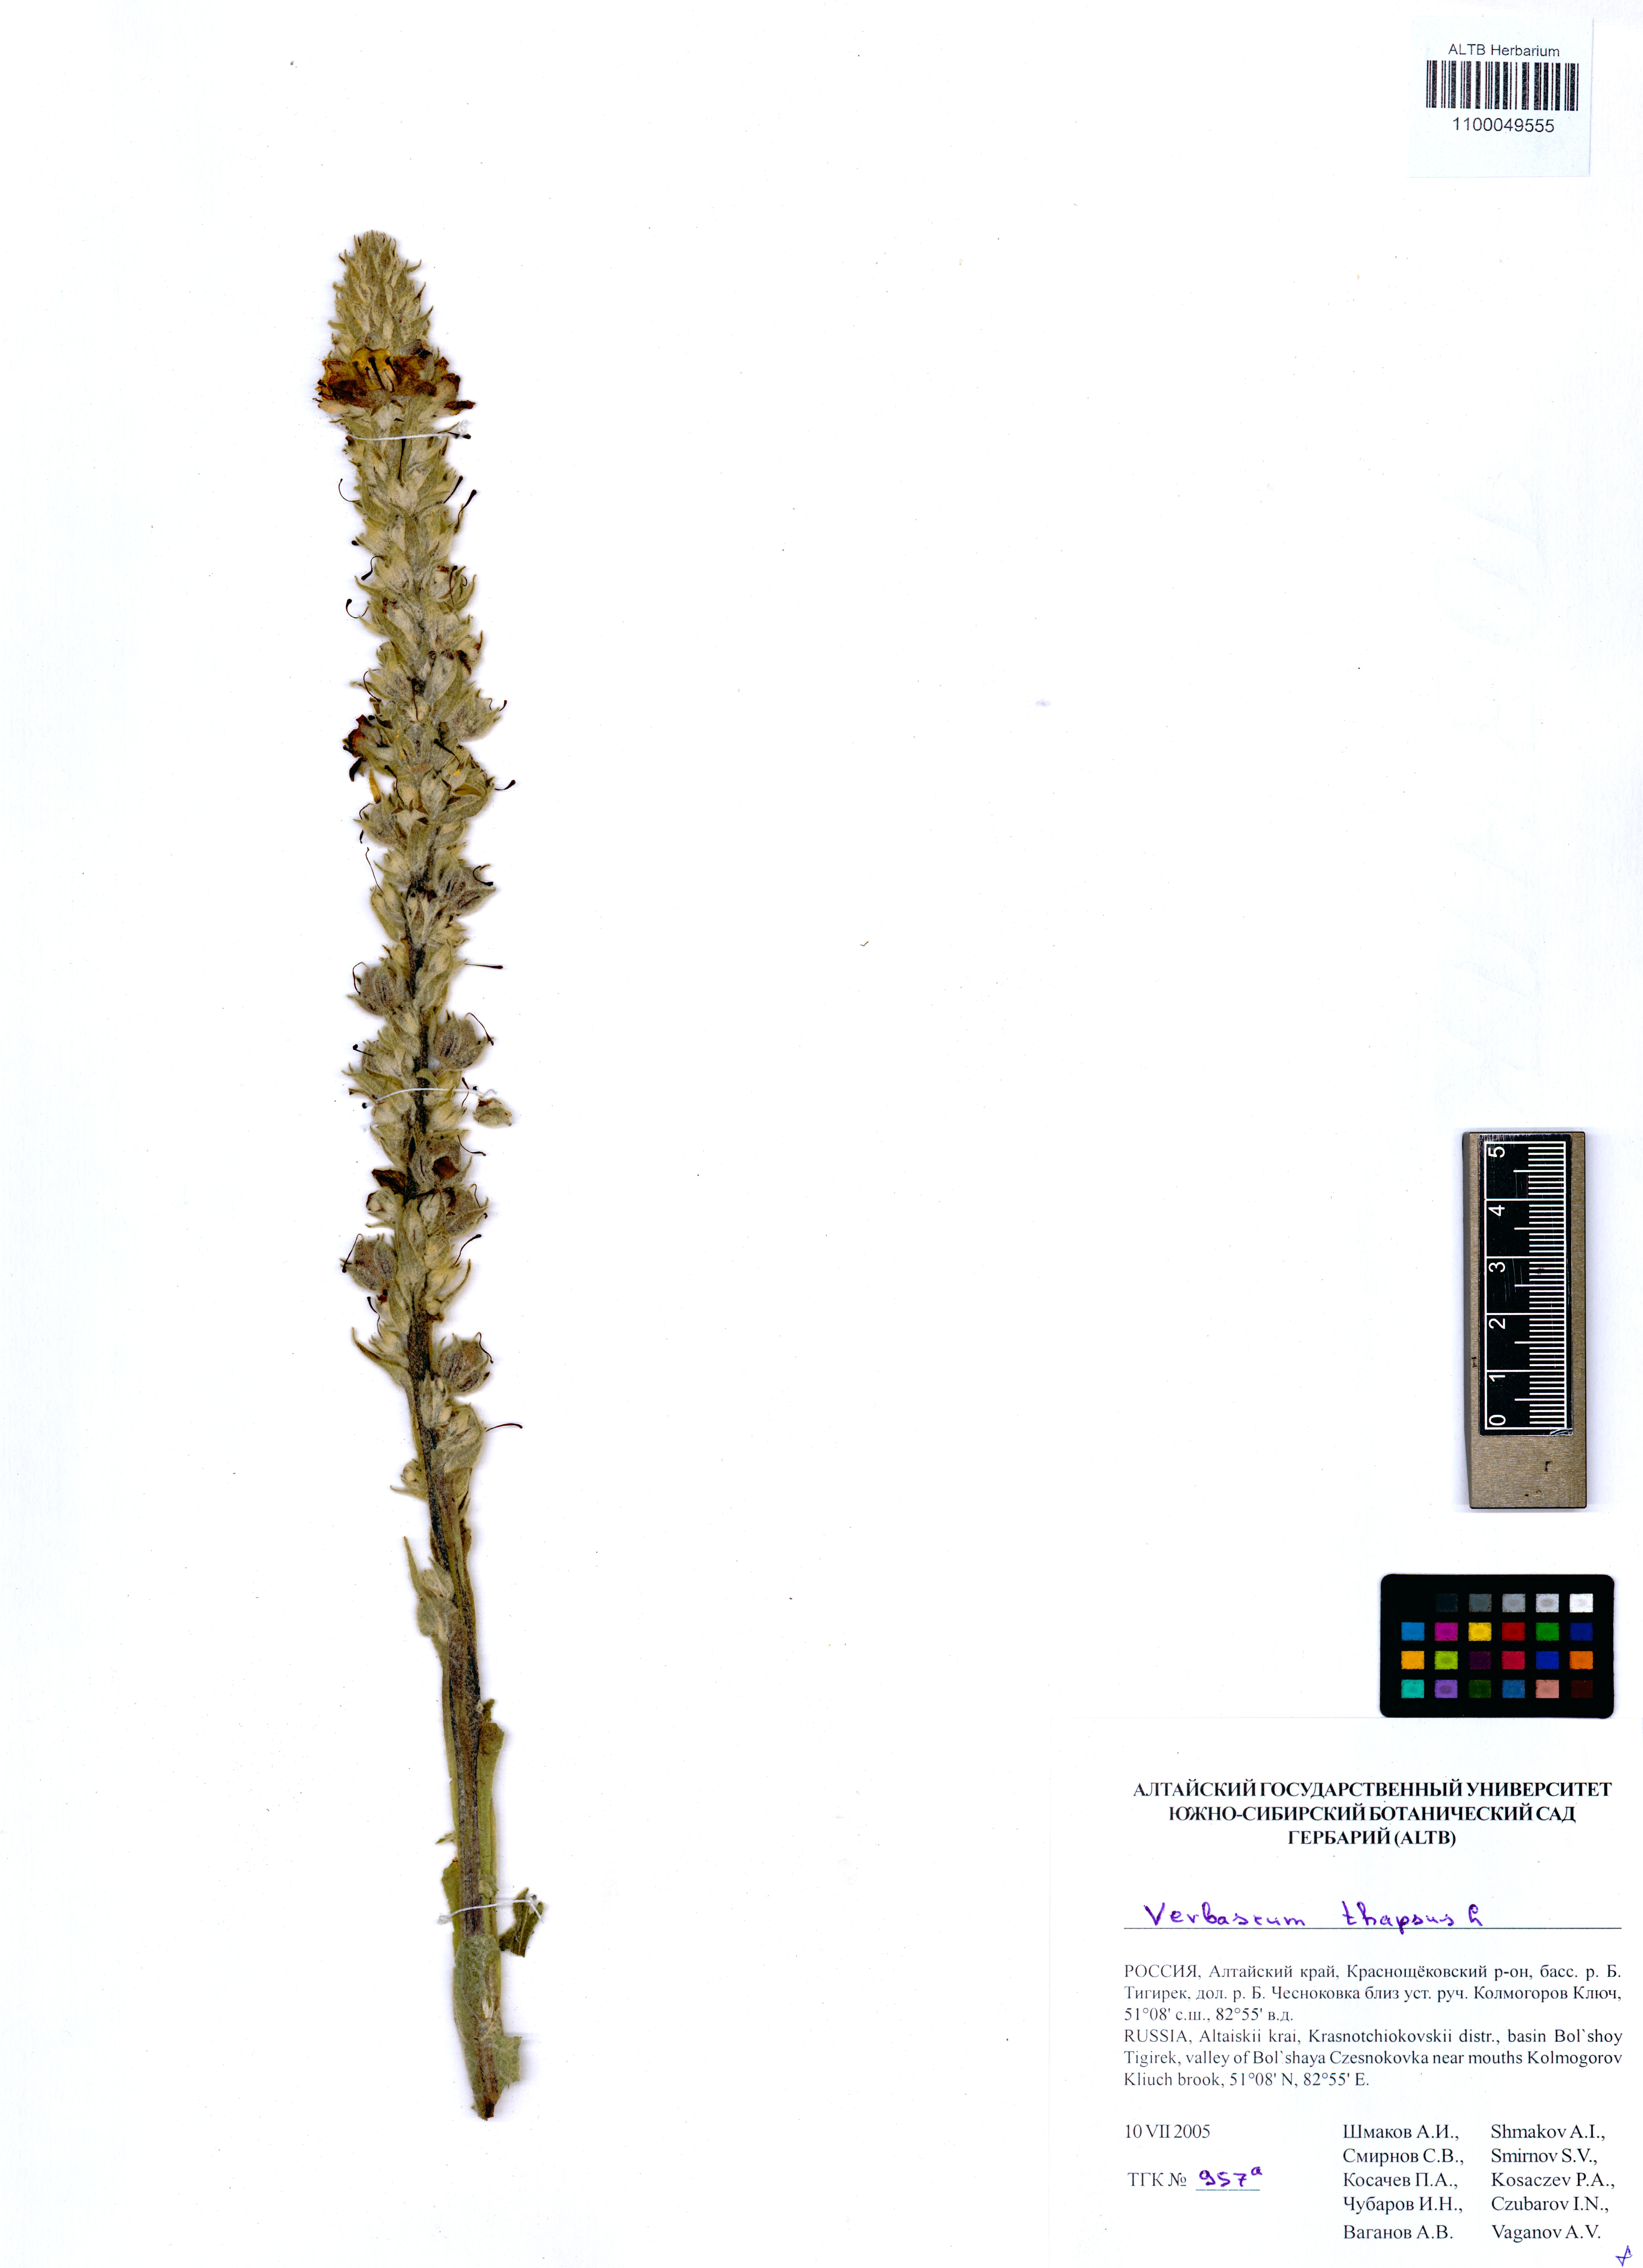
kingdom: Plantae
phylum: Tracheophyta
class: Magnoliopsida
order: Lamiales
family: Scrophulariaceae
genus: Verbascum
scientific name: Verbascum thapsus
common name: Common mullein
